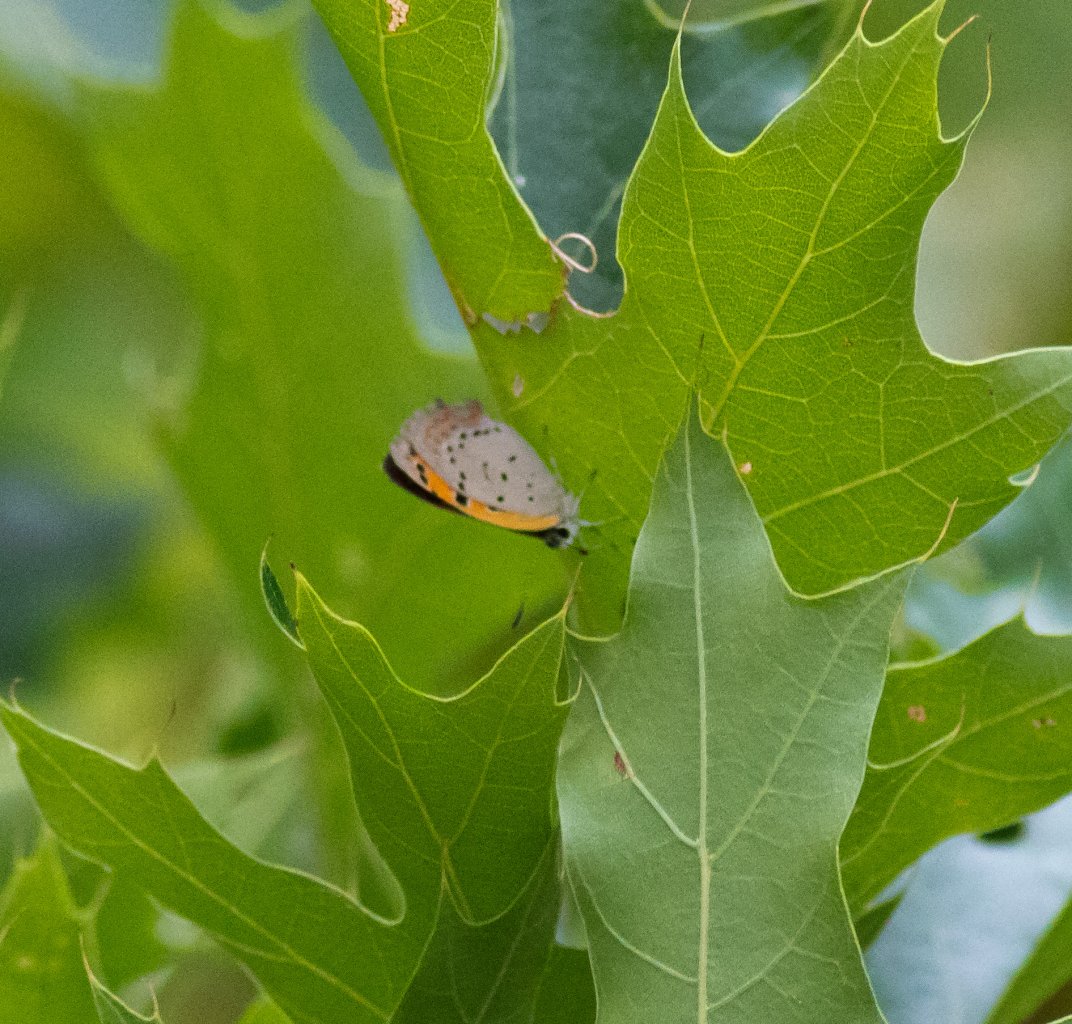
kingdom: Animalia
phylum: Arthropoda
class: Insecta
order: Lepidoptera
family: Lycaenidae
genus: Lycaena
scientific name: Lycaena phlaeas
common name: American Copper
